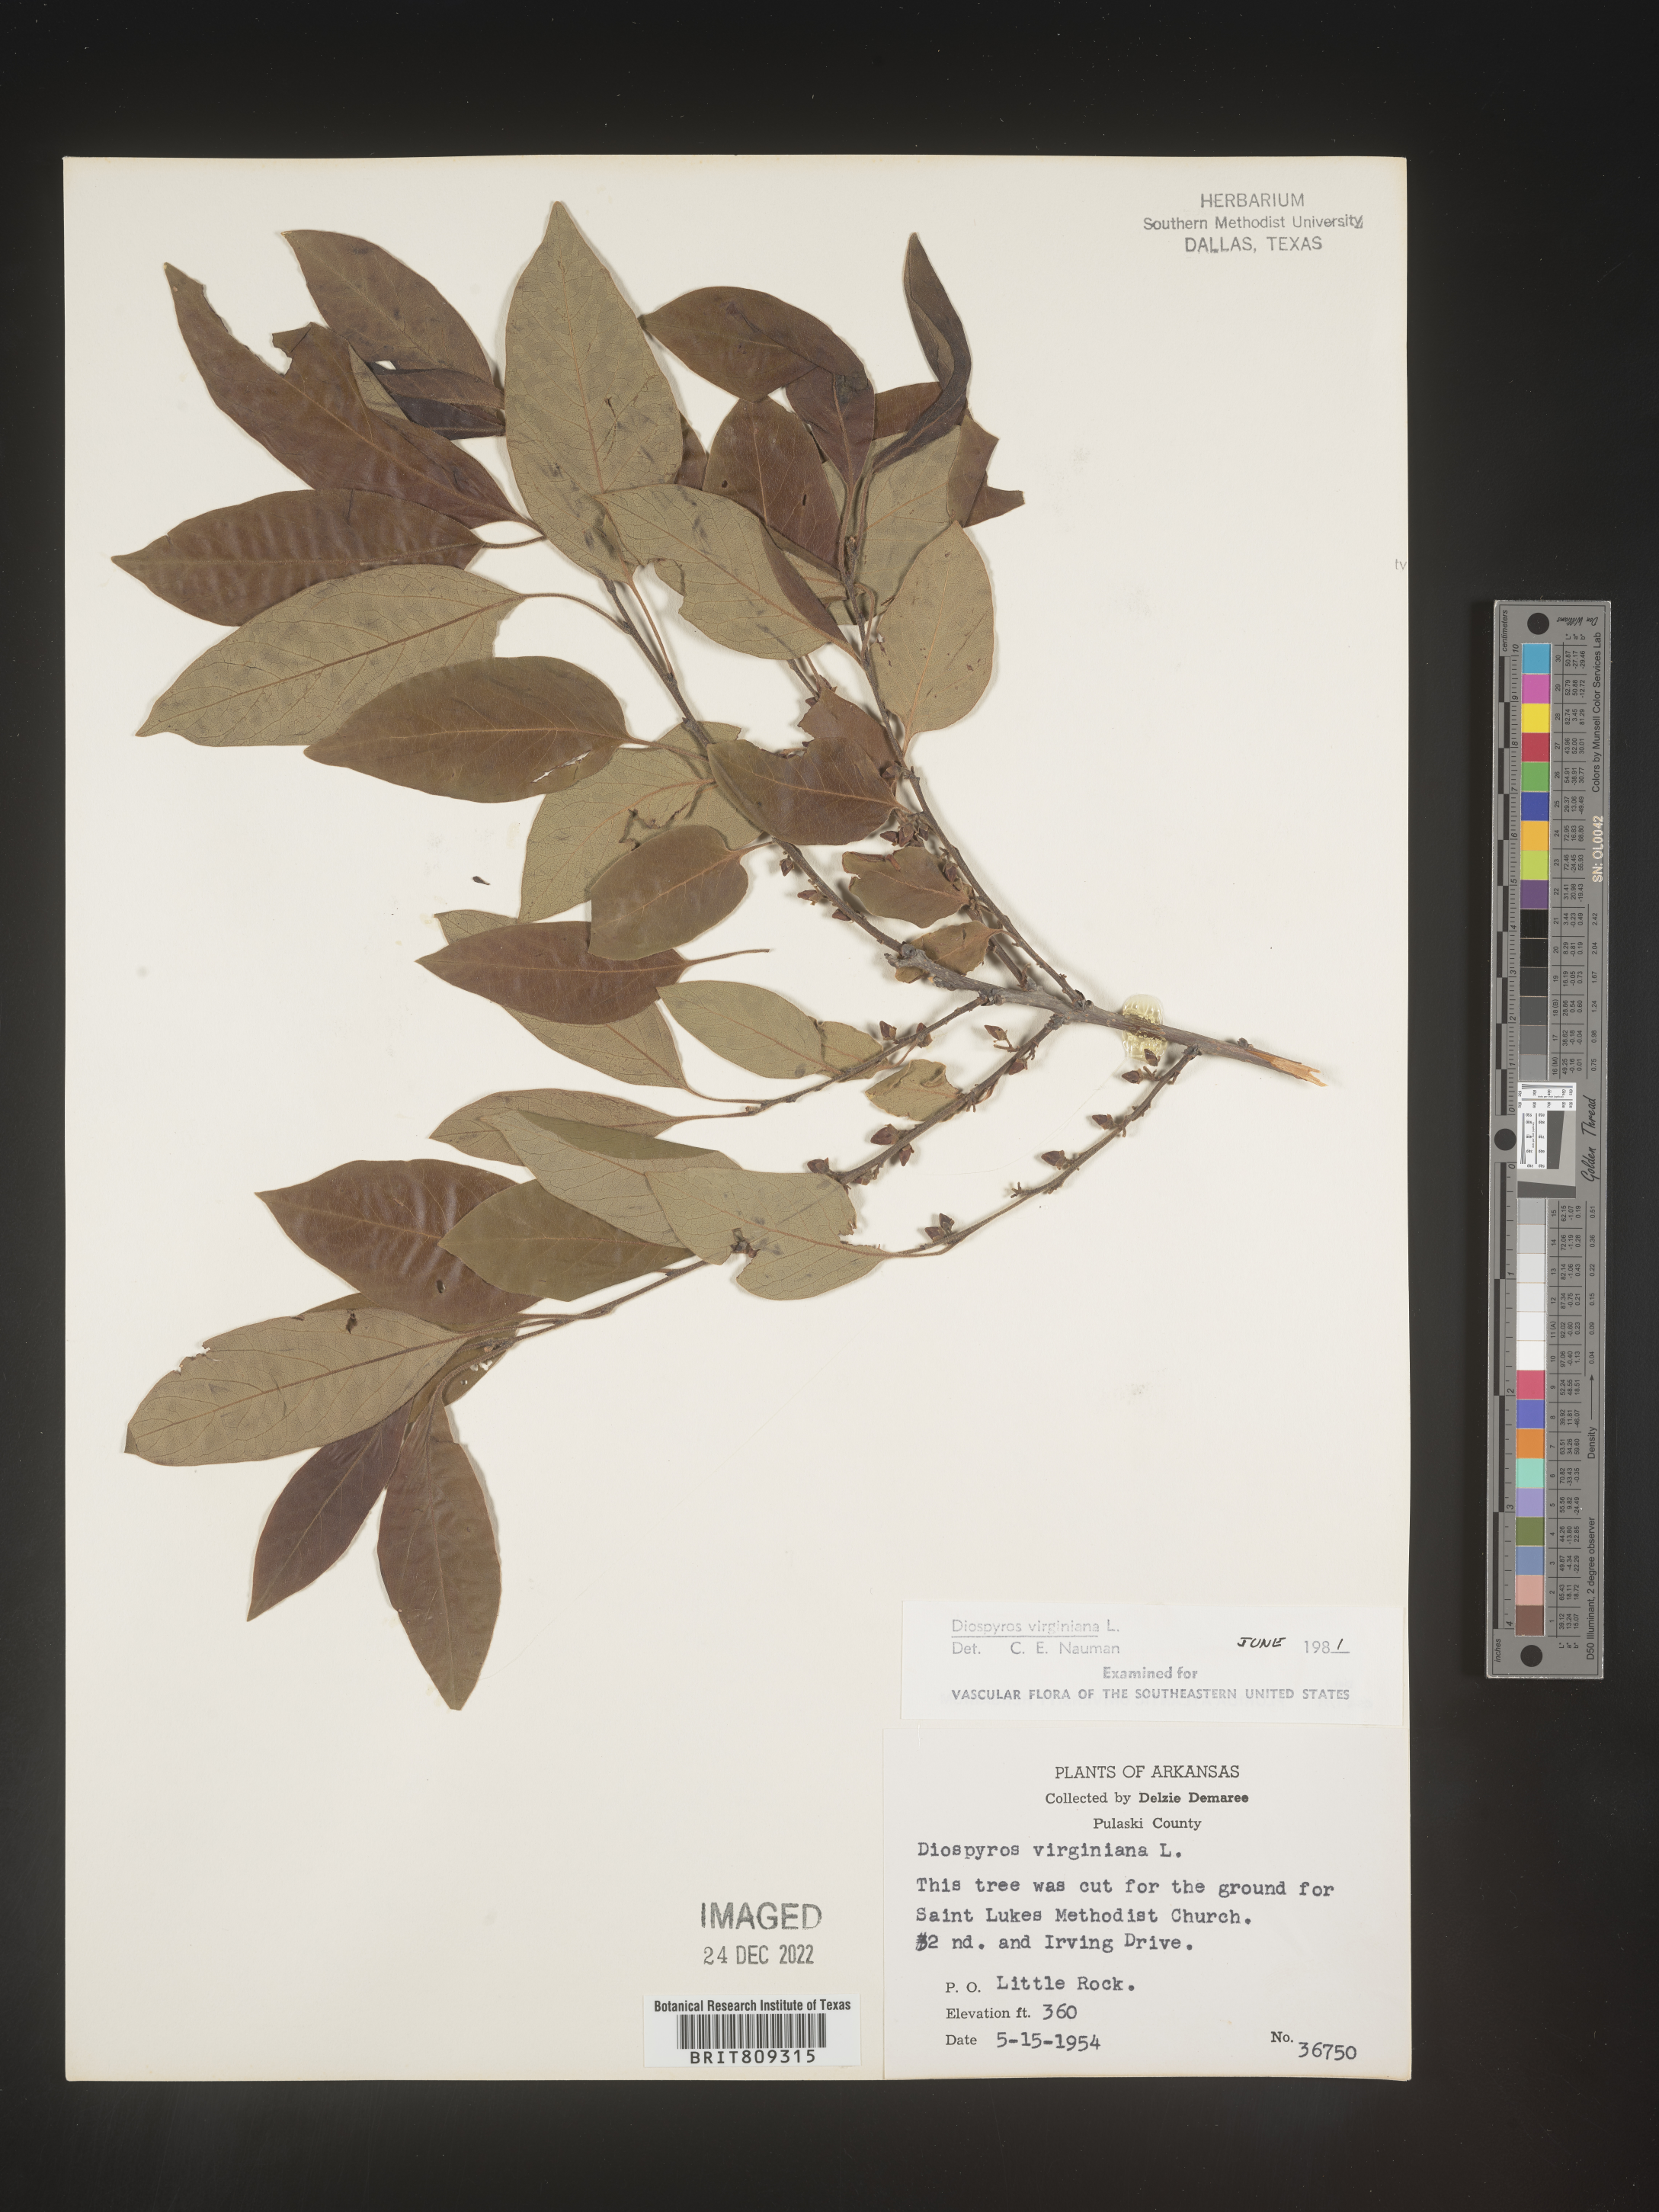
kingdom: Plantae
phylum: Tracheophyta
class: Magnoliopsida
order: Ericales
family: Ebenaceae
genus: Diospyros
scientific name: Diospyros virginiana
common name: Persimmon
